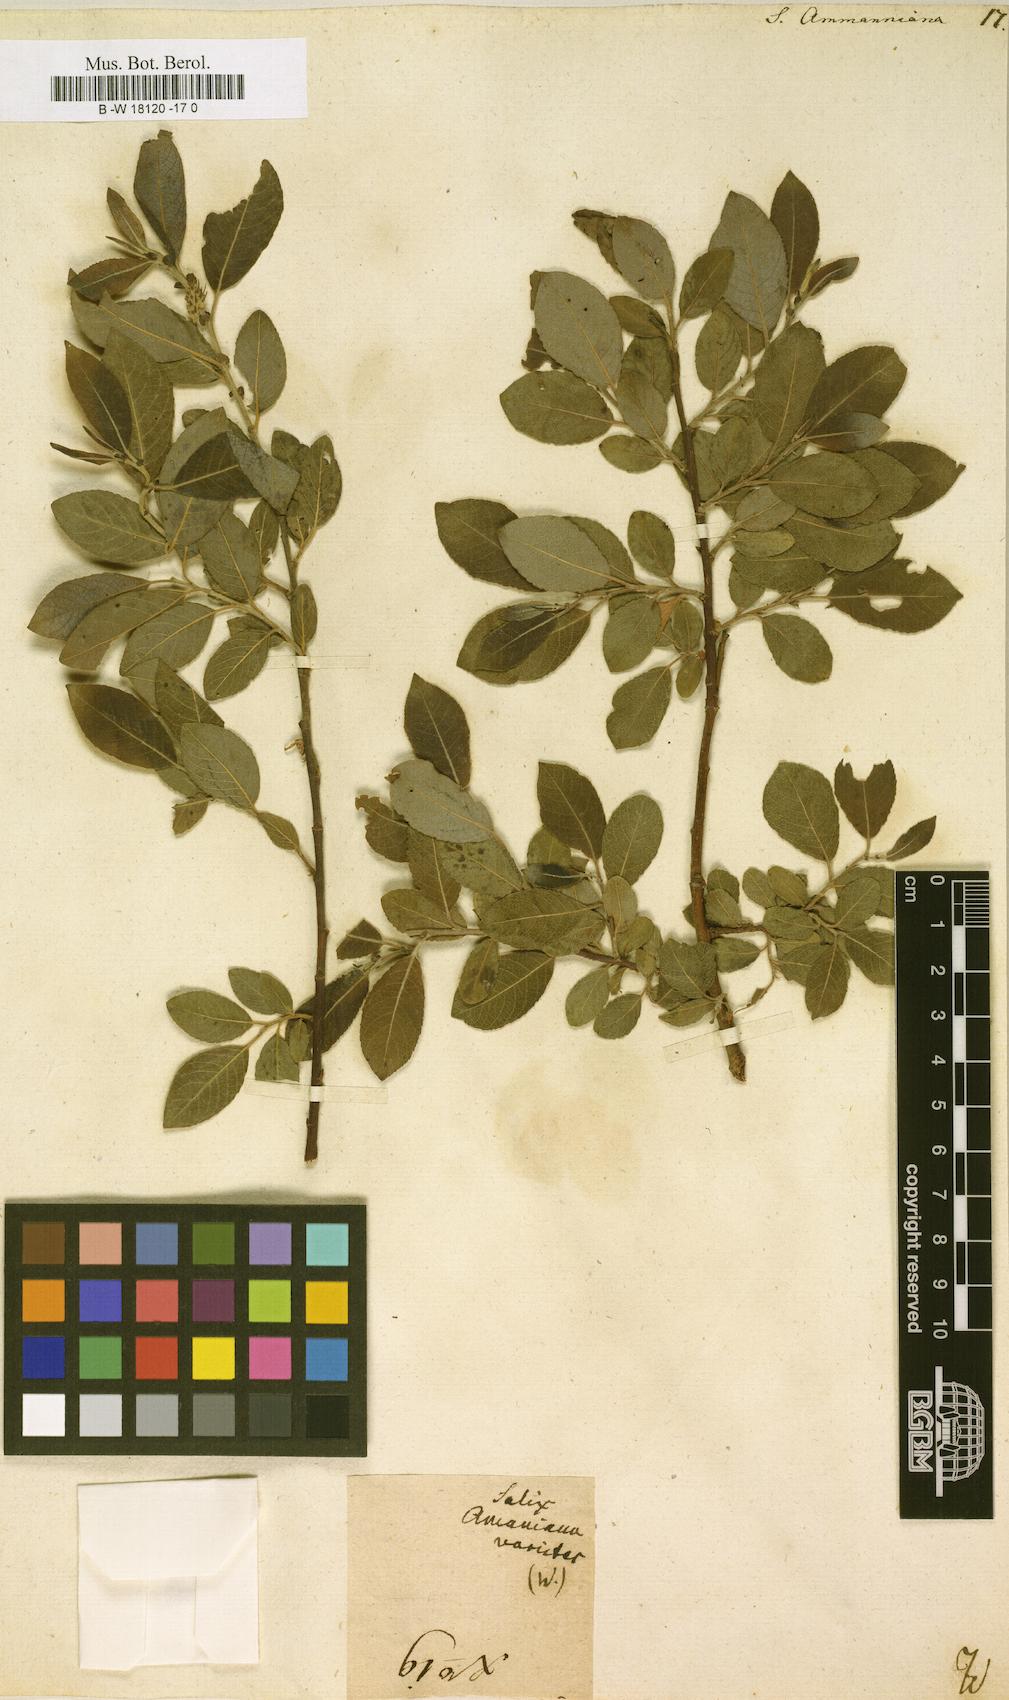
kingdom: Plantae
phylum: Tracheophyta
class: Magnoliopsida
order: Malpighiales
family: Salicaceae
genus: Salix
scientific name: Salix myrsinifolia
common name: Dark-leaved willow
